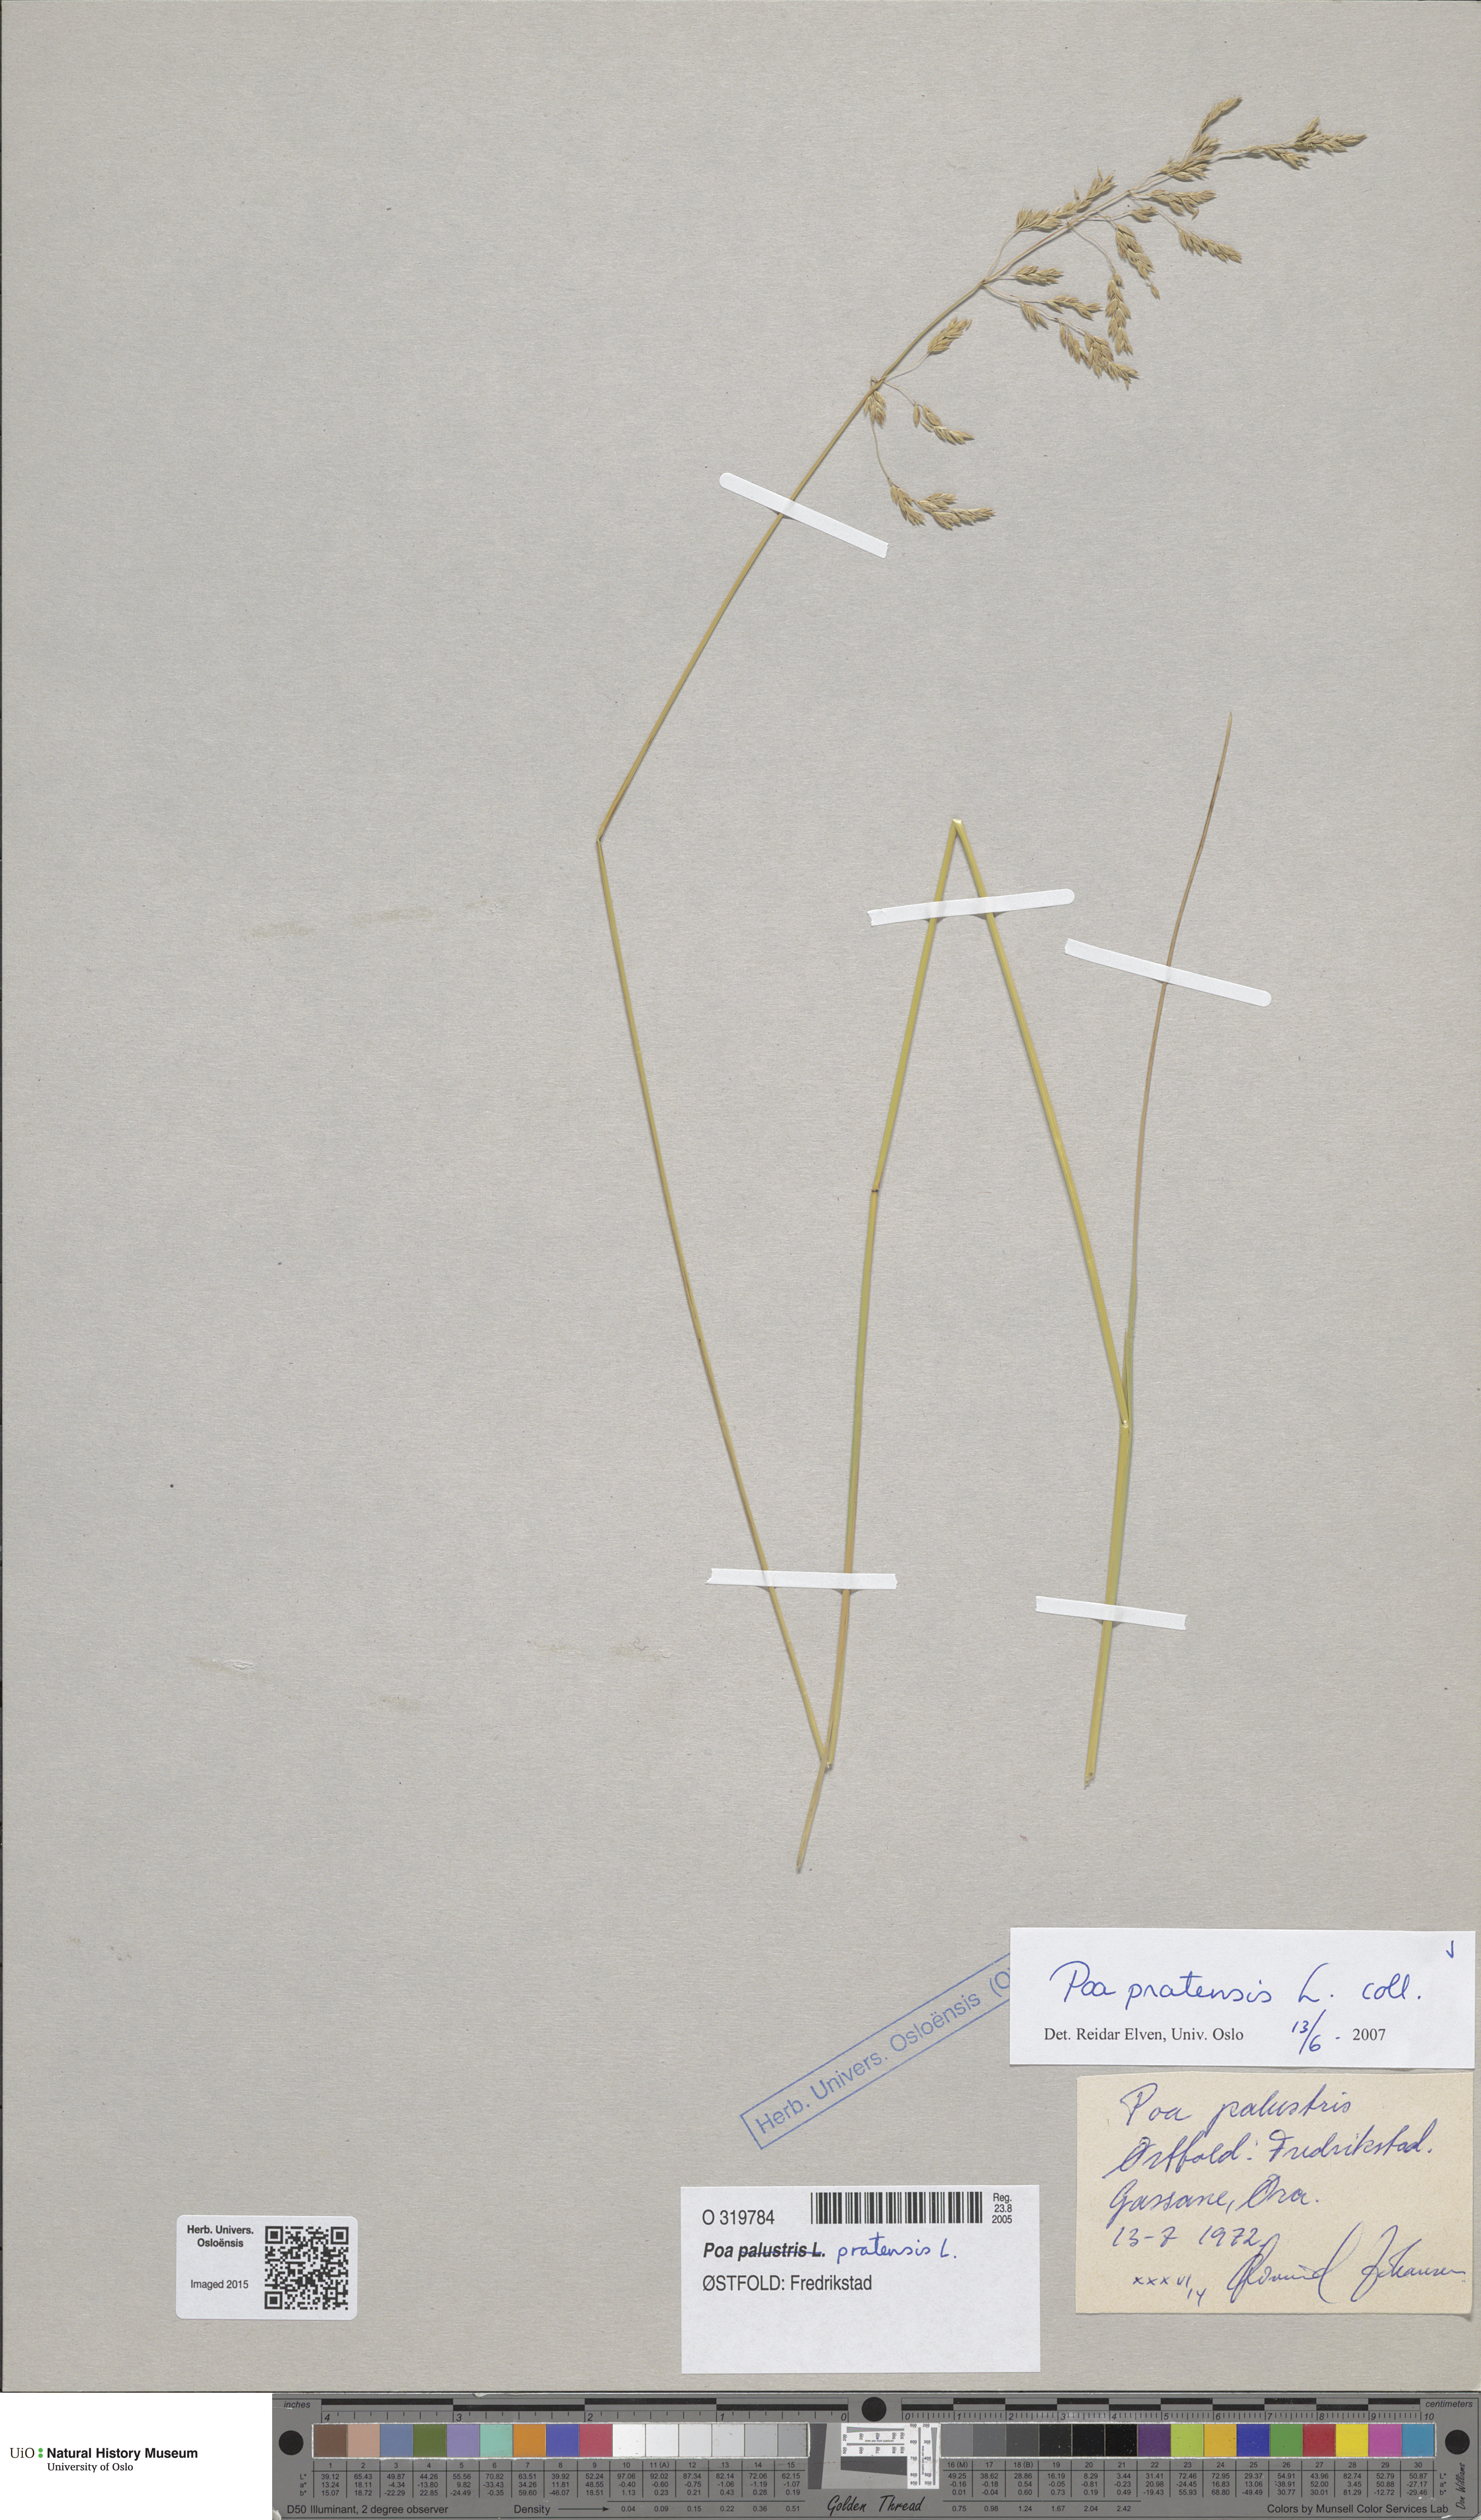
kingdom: Plantae
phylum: Tracheophyta
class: Liliopsida
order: Poales
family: Poaceae
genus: Poa
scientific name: Poa pratensis
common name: Kentucky bluegrass
